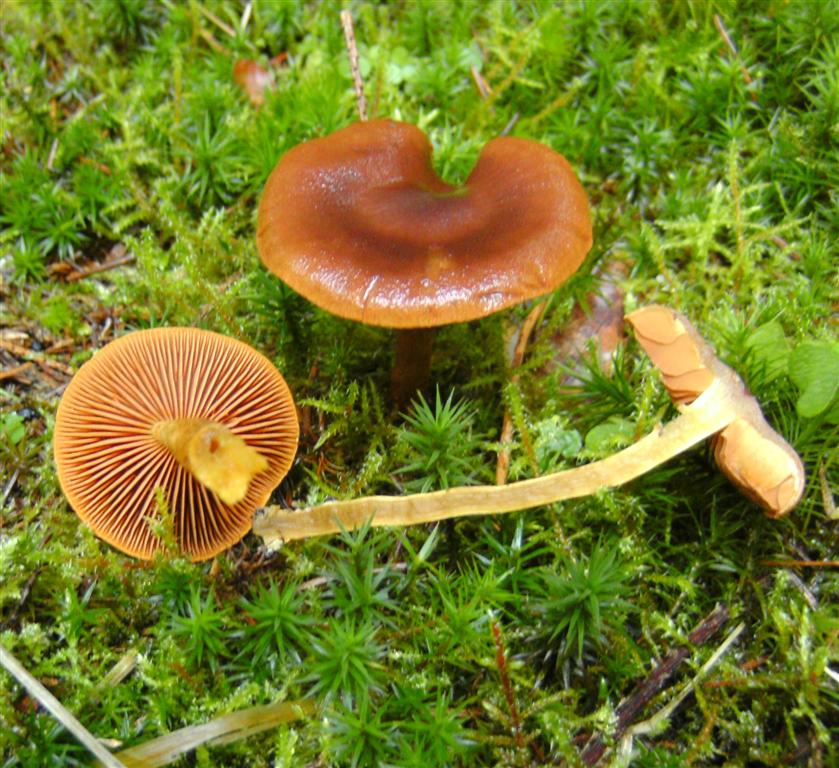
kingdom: Fungi
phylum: Basidiomycota
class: Agaricomycetes
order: Agaricales
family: Cortinariaceae
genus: Cortinarius
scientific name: Cortinarius cinnamomeus
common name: kanel-slørhat
